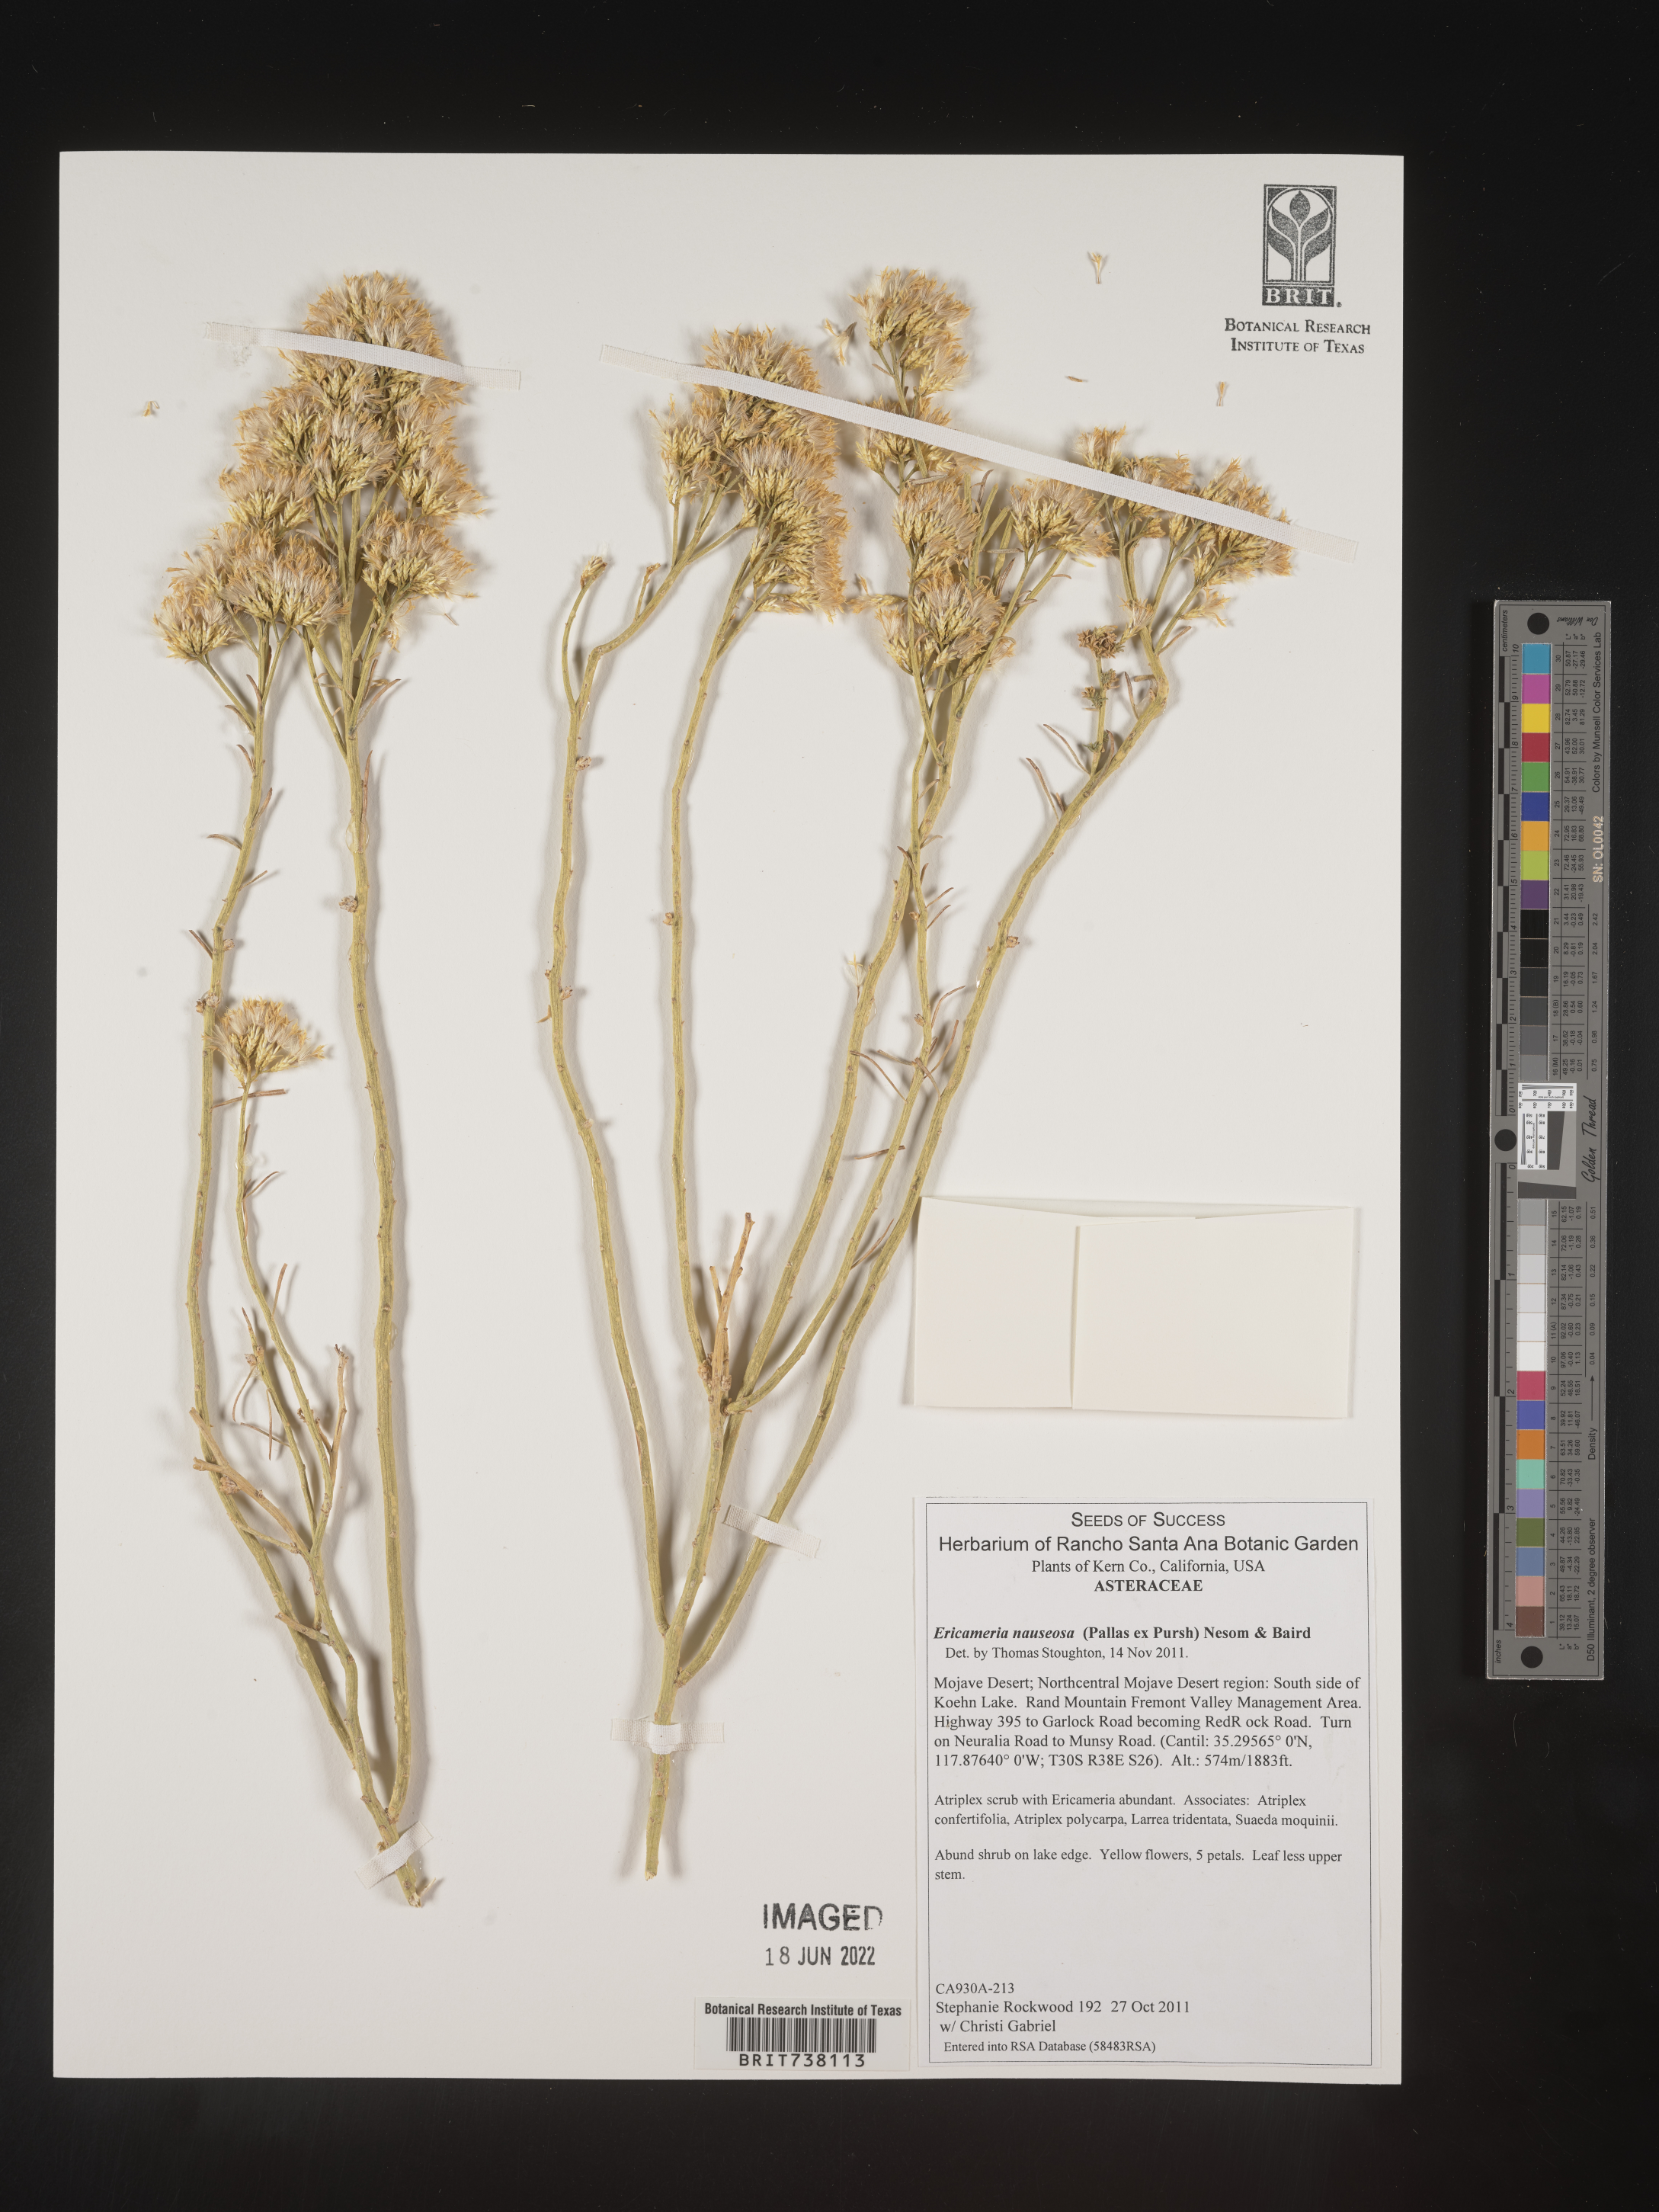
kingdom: Plantae
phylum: Tracheophyta
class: Magnoliopsida
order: Asterales
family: Asteraceae
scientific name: Asteraceae
